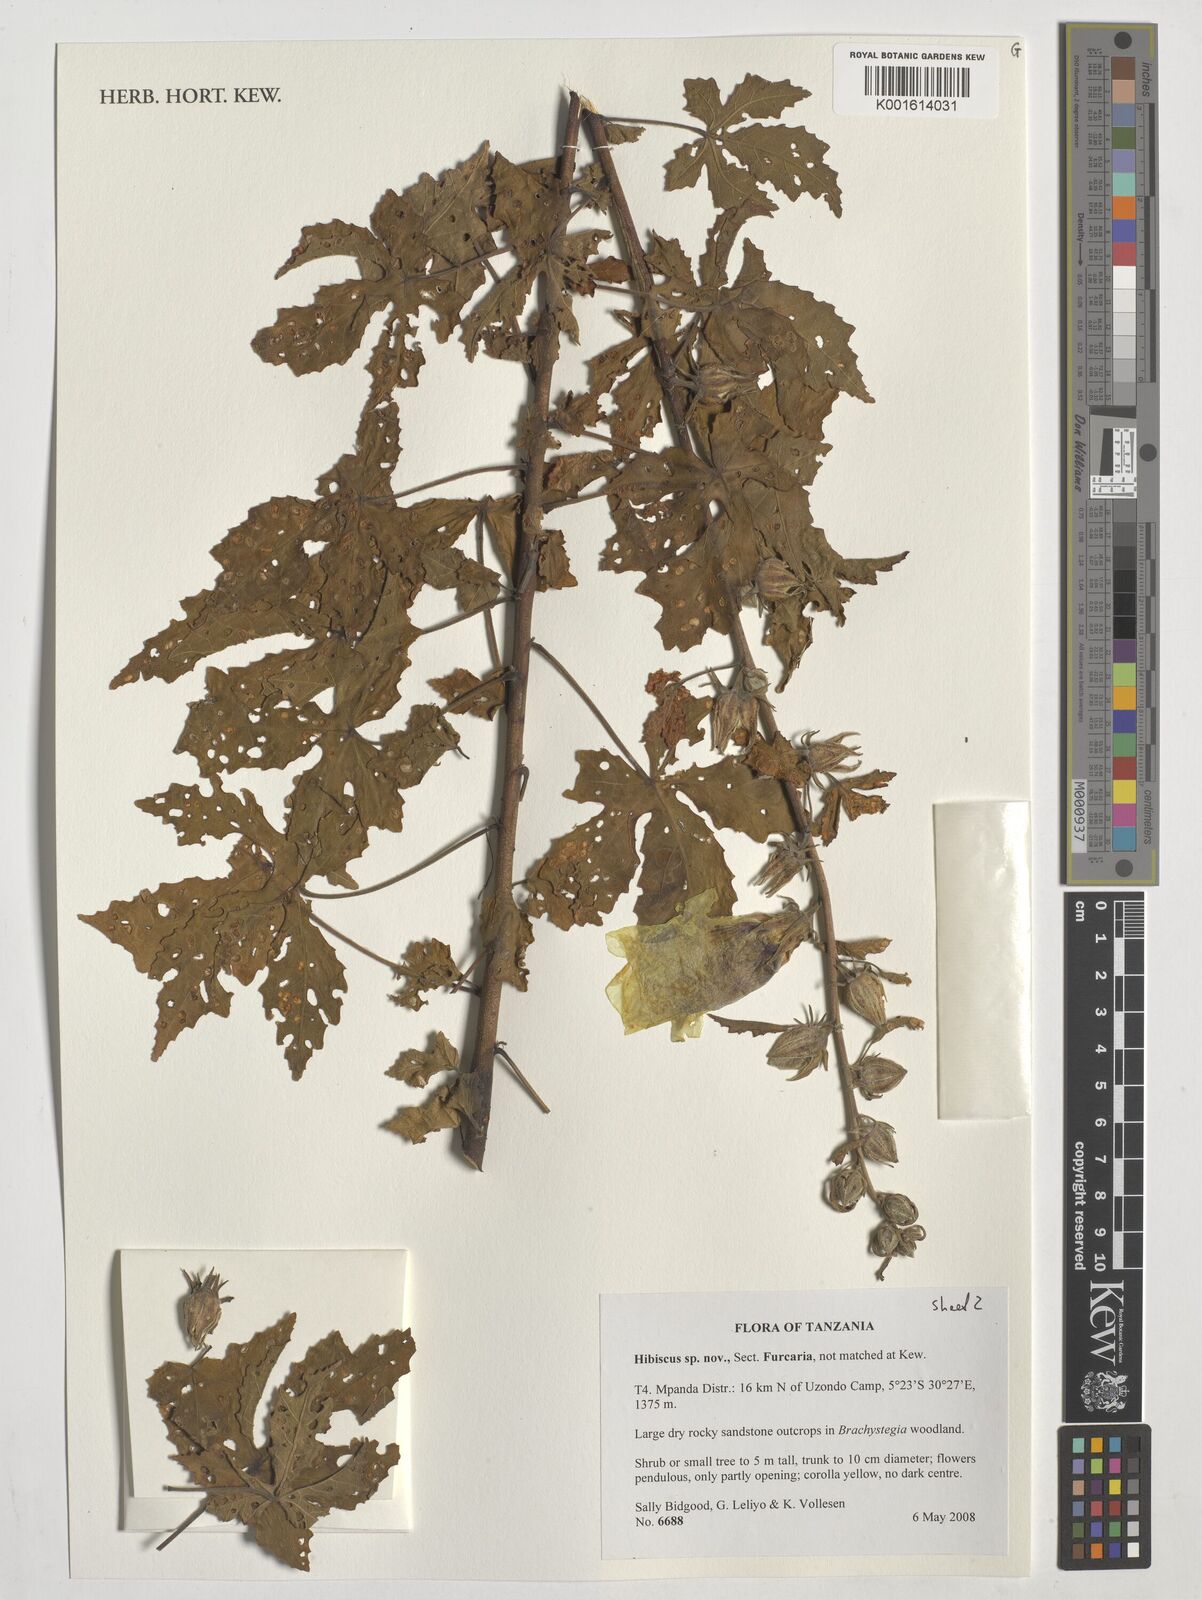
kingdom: Plantae
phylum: Tracheophyta
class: Magnoliopsida
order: Malvales
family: Malvaceae
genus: Hibiscus
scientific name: Hibiscus
